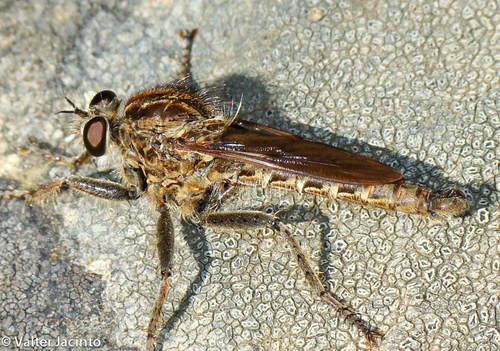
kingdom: Animalia
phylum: Arthropoda
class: Insecta
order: Diptera
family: Asilidae
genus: Machimus
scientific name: Machimus chrysitis
